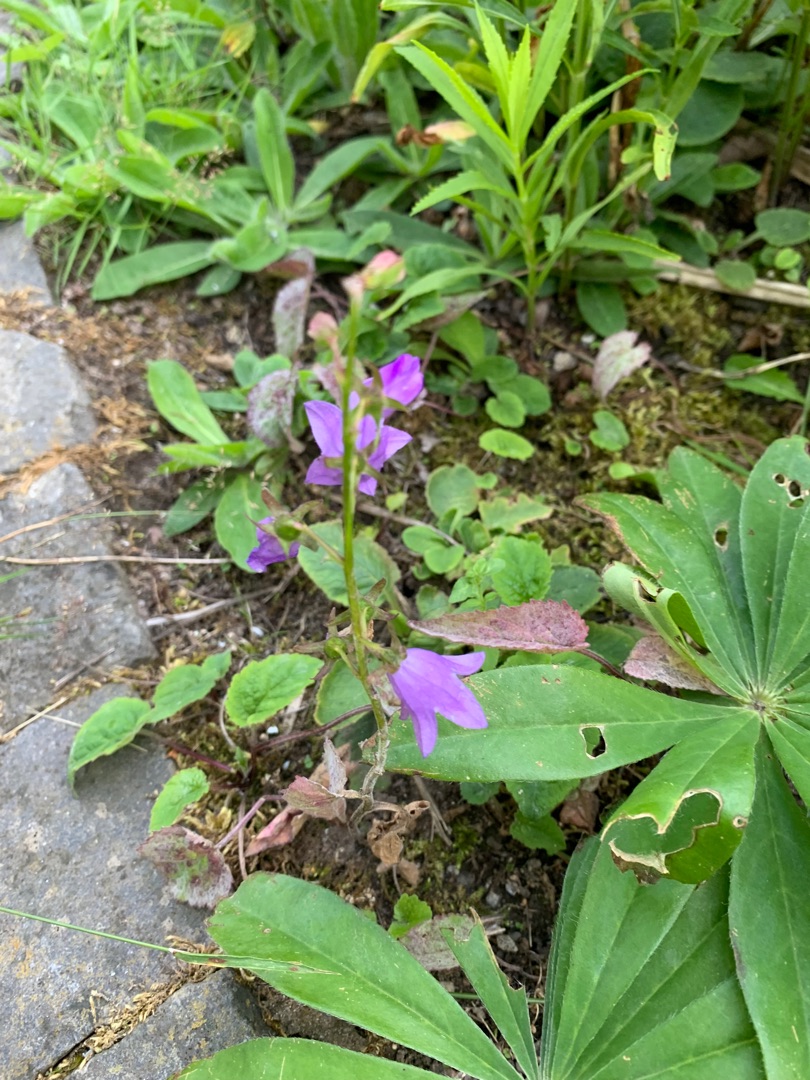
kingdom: Plantae
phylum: Tracheophyta
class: Magnoliopsida
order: Asterales
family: Campanulaceae
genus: Campanula
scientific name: Campanula rapunculoides
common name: Ensidig klokke
